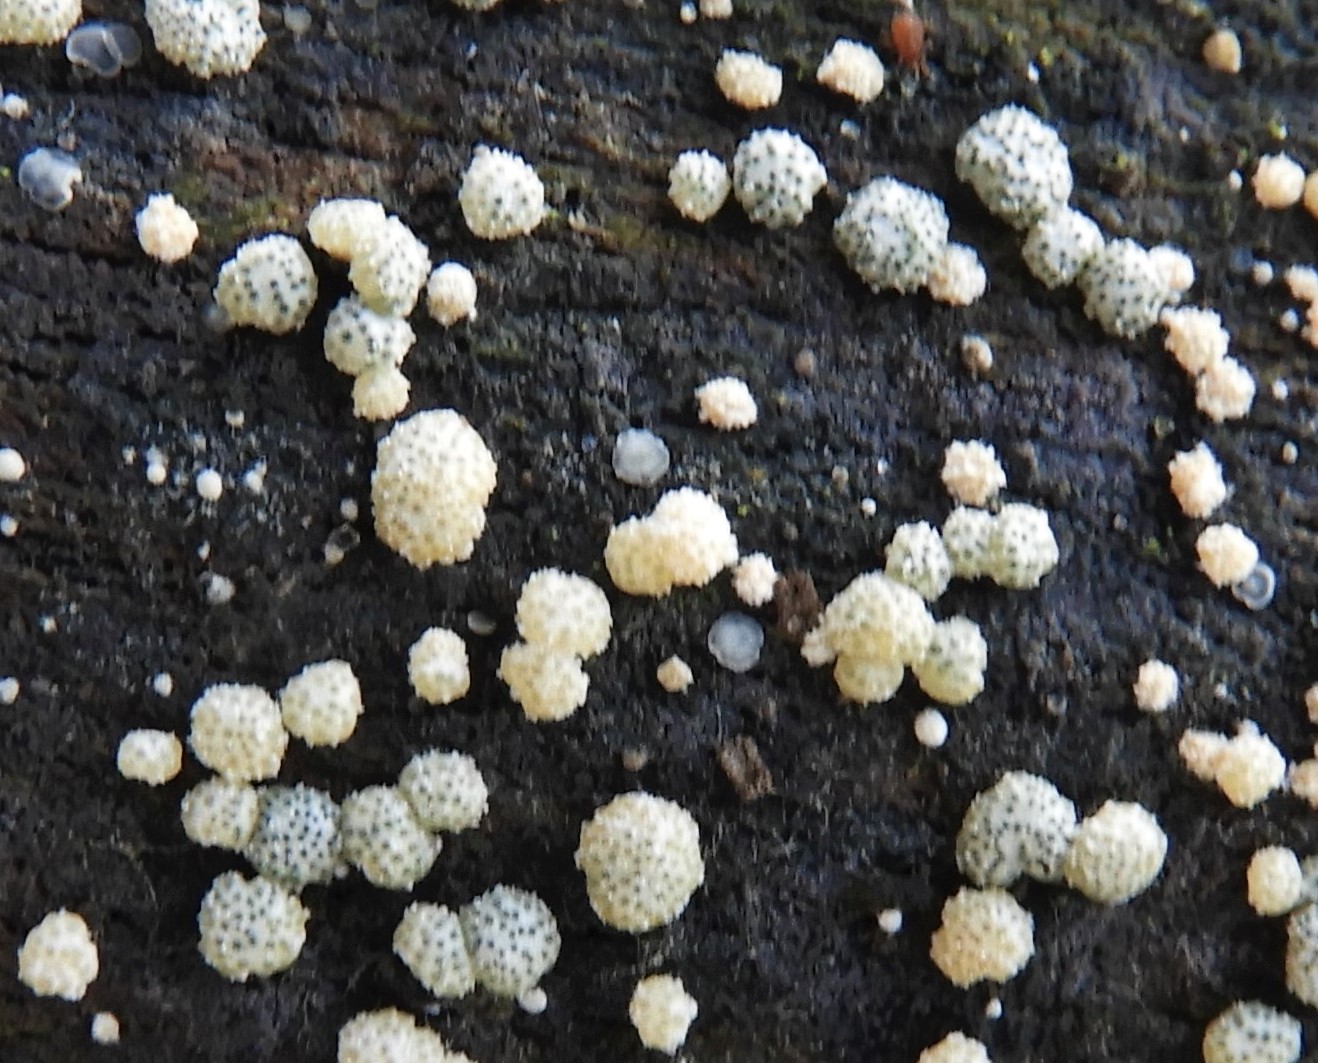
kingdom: Fungi
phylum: Ascomycota
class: Sordariomycetes
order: Hypocreales
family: Hypocreaceae
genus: Trichoderma
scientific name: Trichoderma
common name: kødkerne
